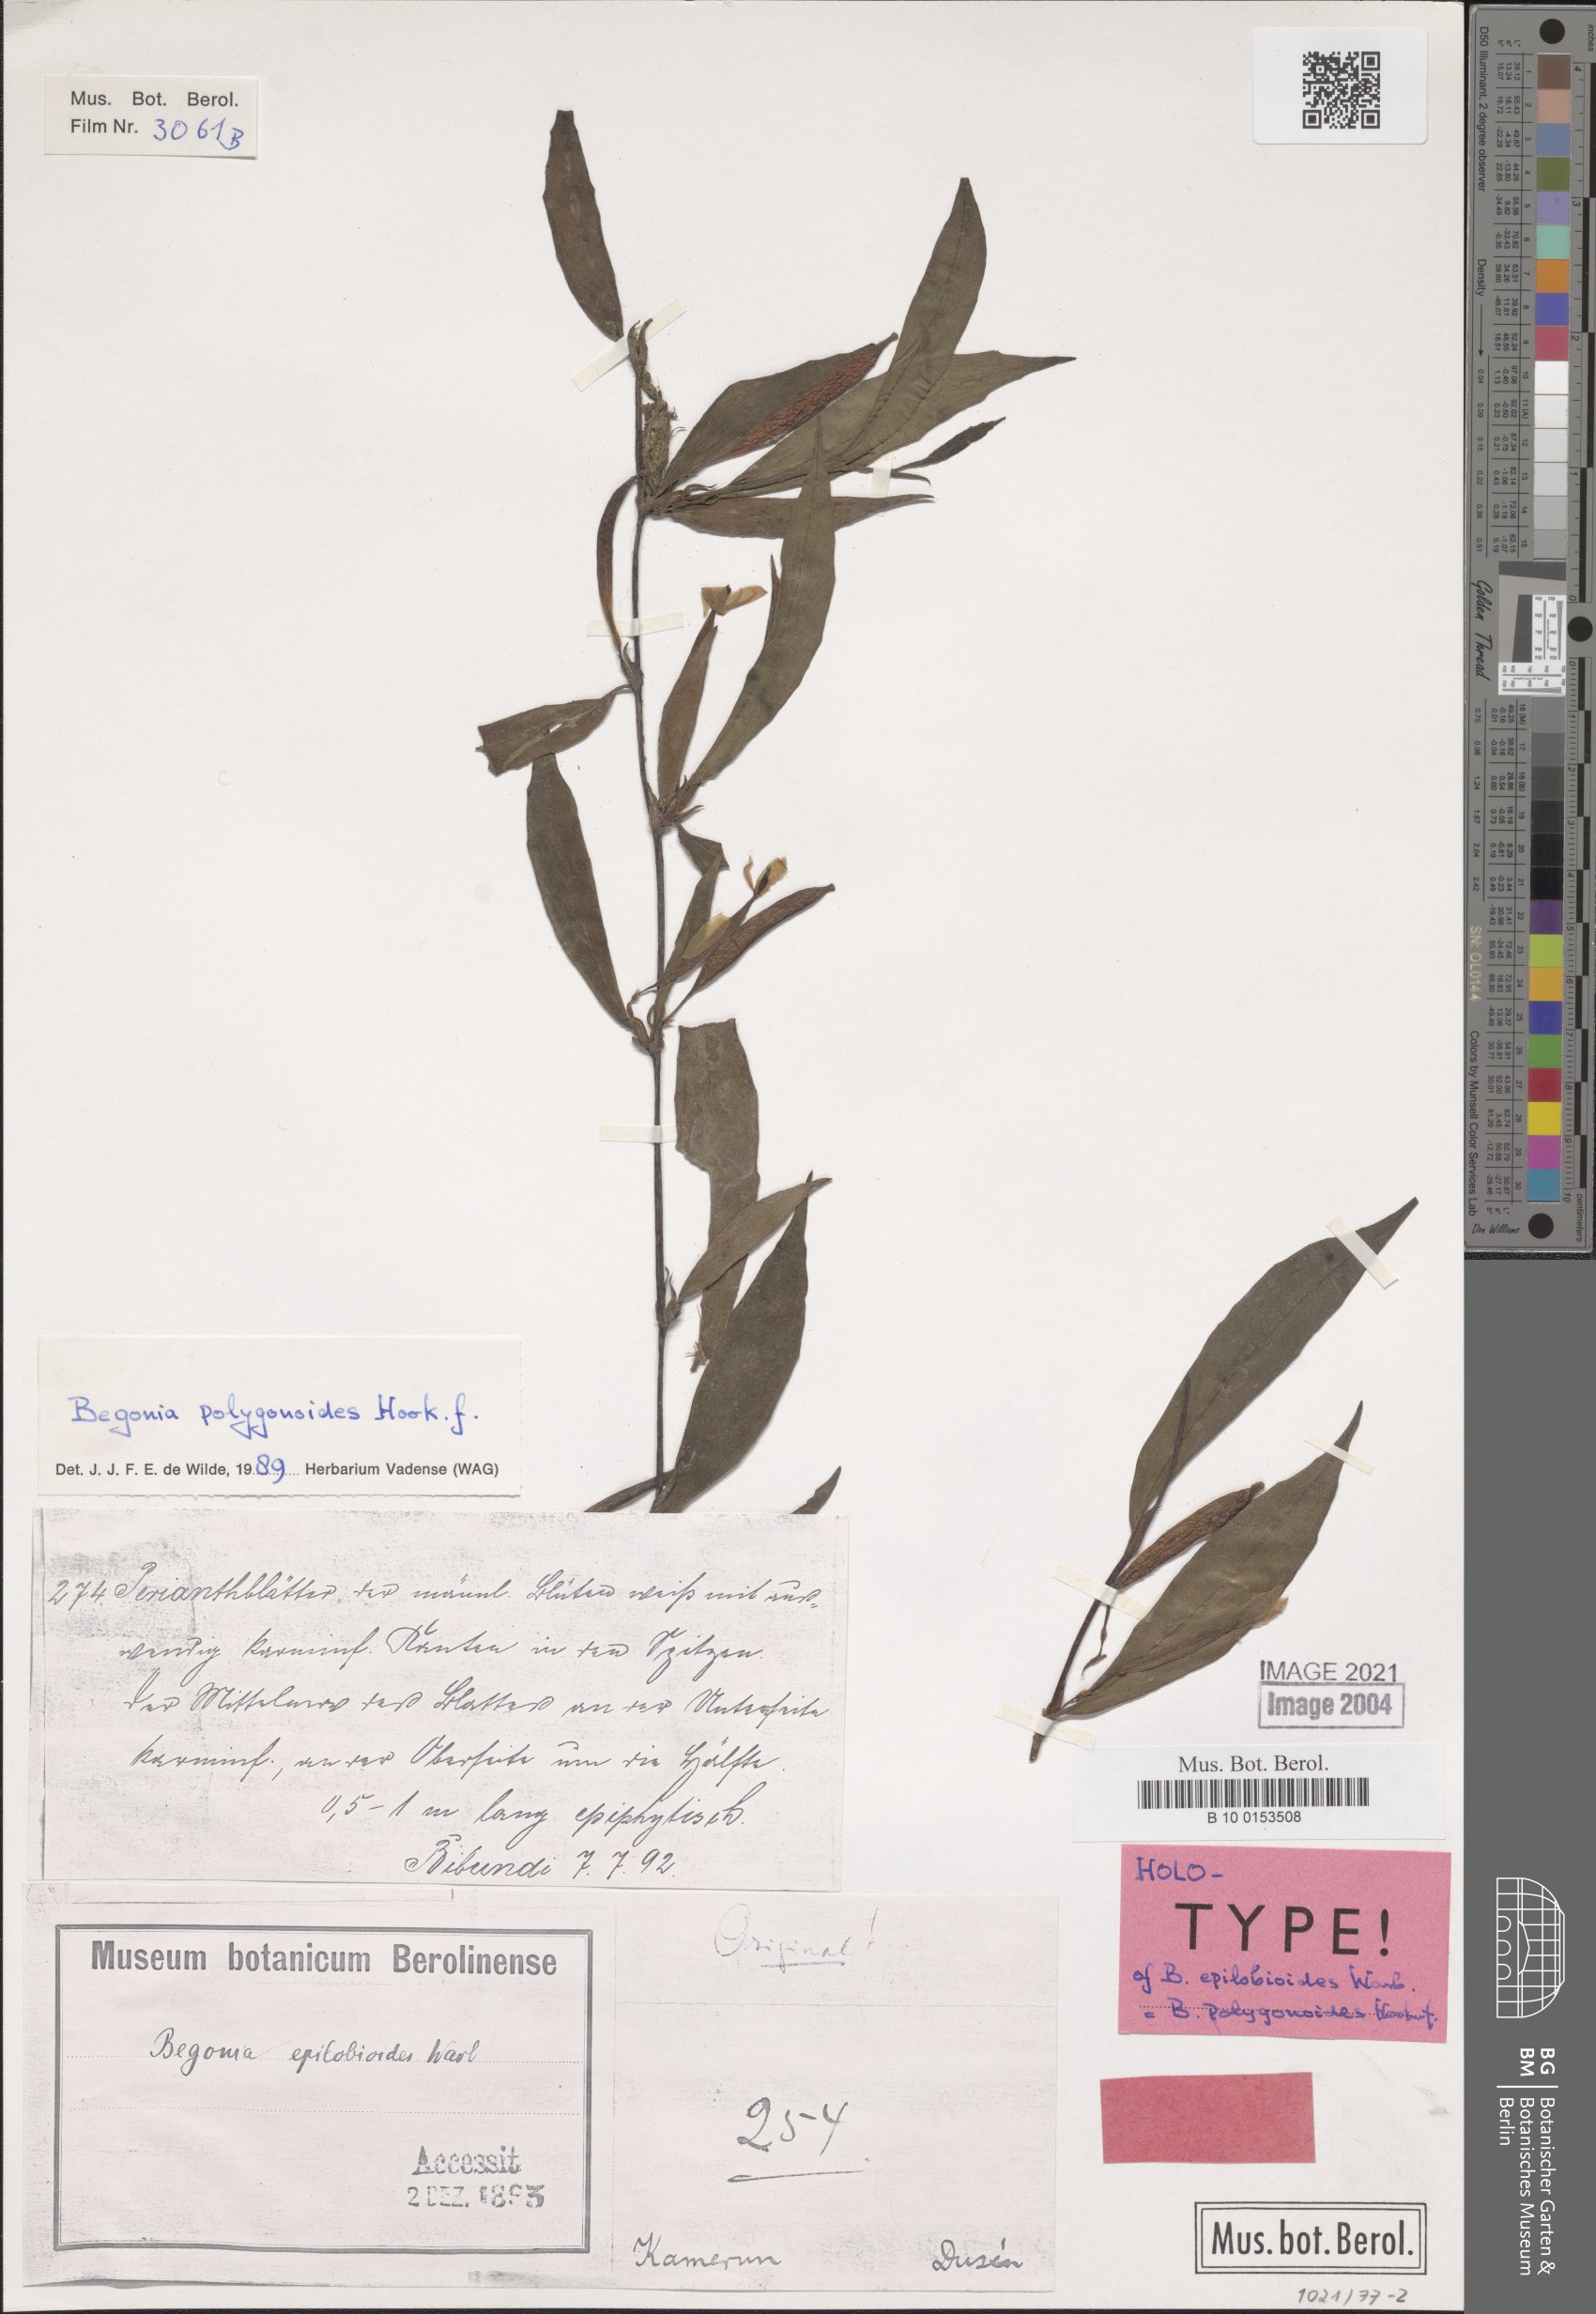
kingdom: Plantae
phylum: Tracheophyta
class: Magnoliopsida
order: Cucurbitales
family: Begoniaceae
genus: Begonia
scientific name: Begonia polygonoides
